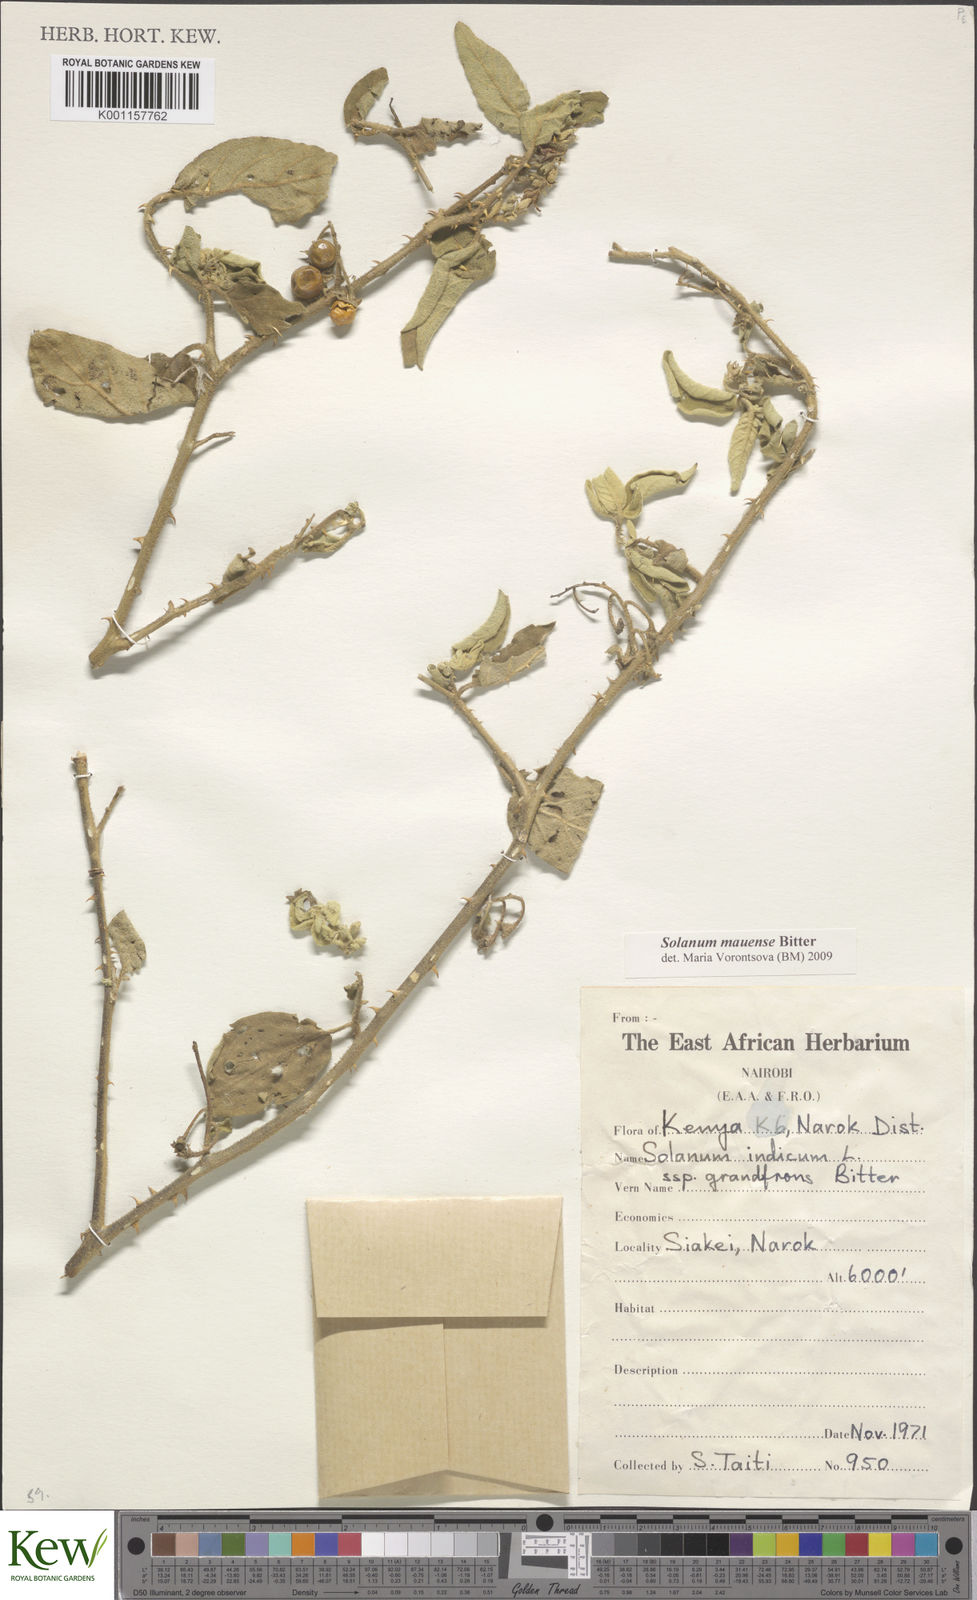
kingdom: Plantae
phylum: Tracheophyta
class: Magnoliopsida
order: Solanales
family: Solanaceae
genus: Solanum
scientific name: Solanum mauense
